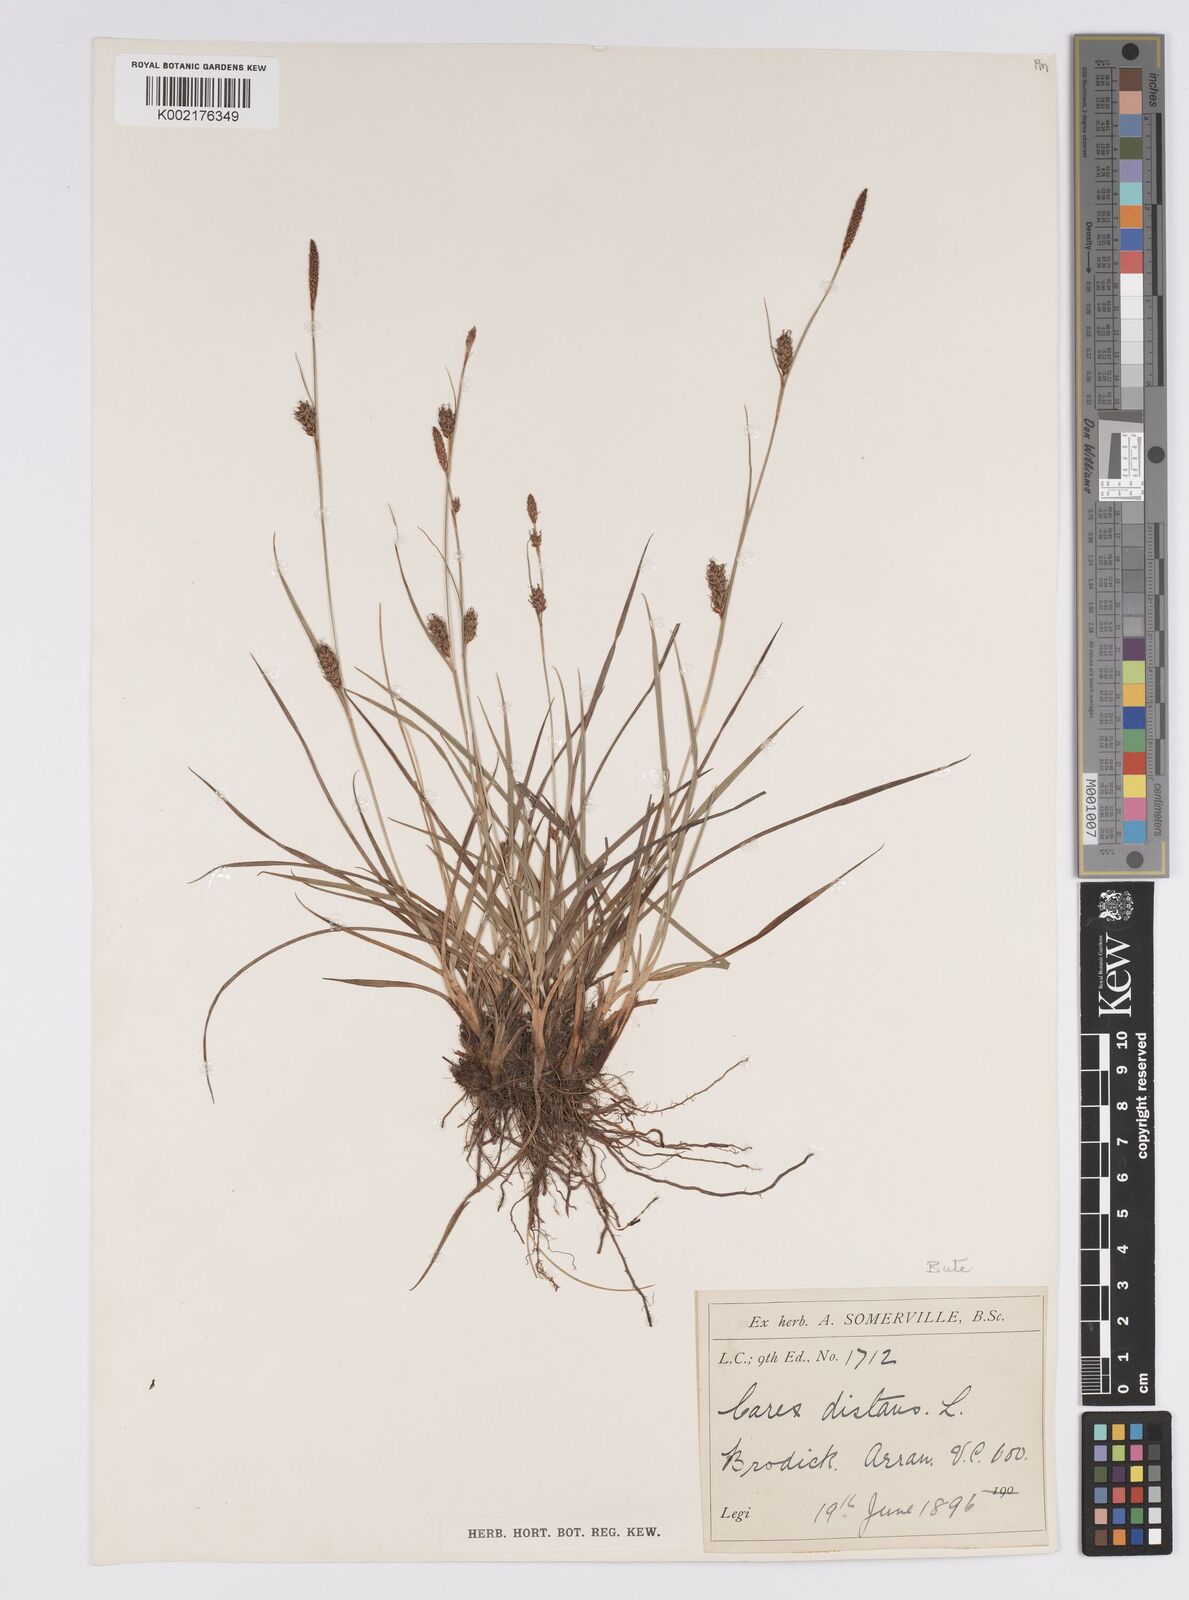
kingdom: Plantae
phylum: Tracheophyta
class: Liliopsida
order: Poales
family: Cyperaceae
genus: Carex
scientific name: Carex distans
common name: Distant sedge
